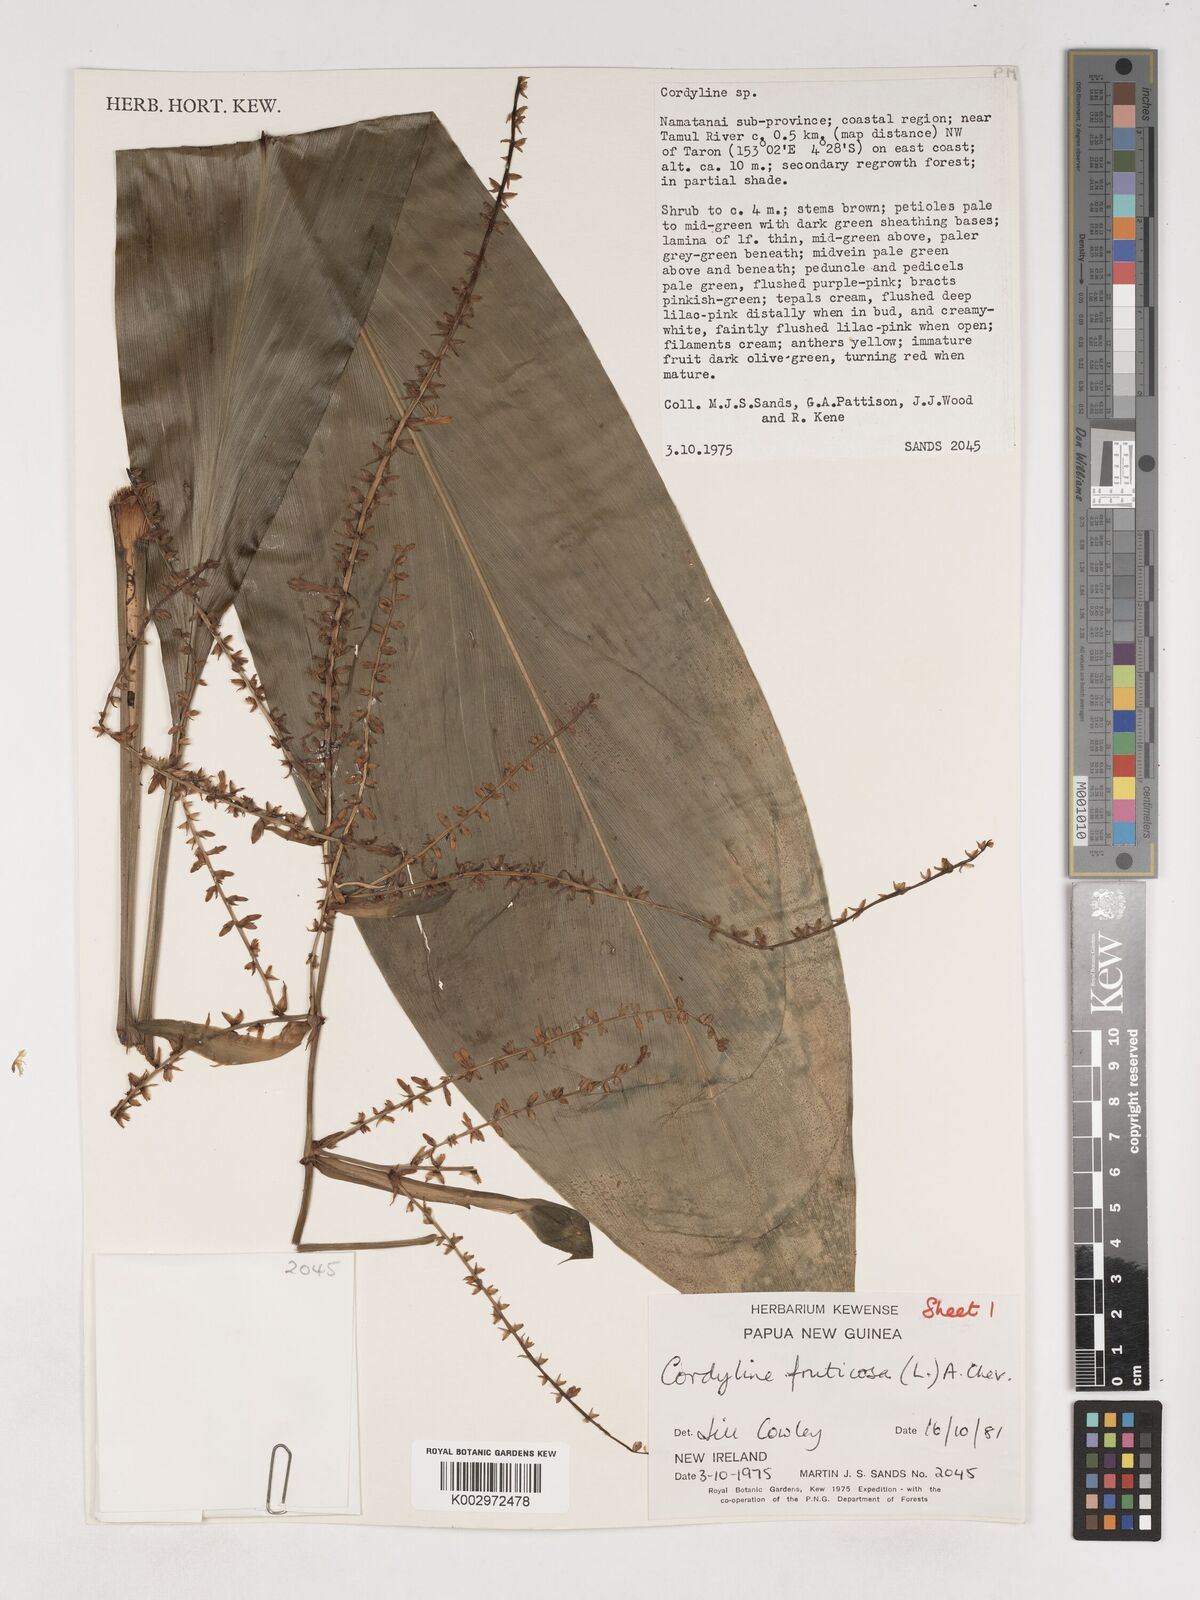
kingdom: Plantae
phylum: Tracheophyta
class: Liliopsida
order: Asparagales
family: Asparagaceae
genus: Cordyline
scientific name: Cordyline fruticosa
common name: Good-luck-plant
